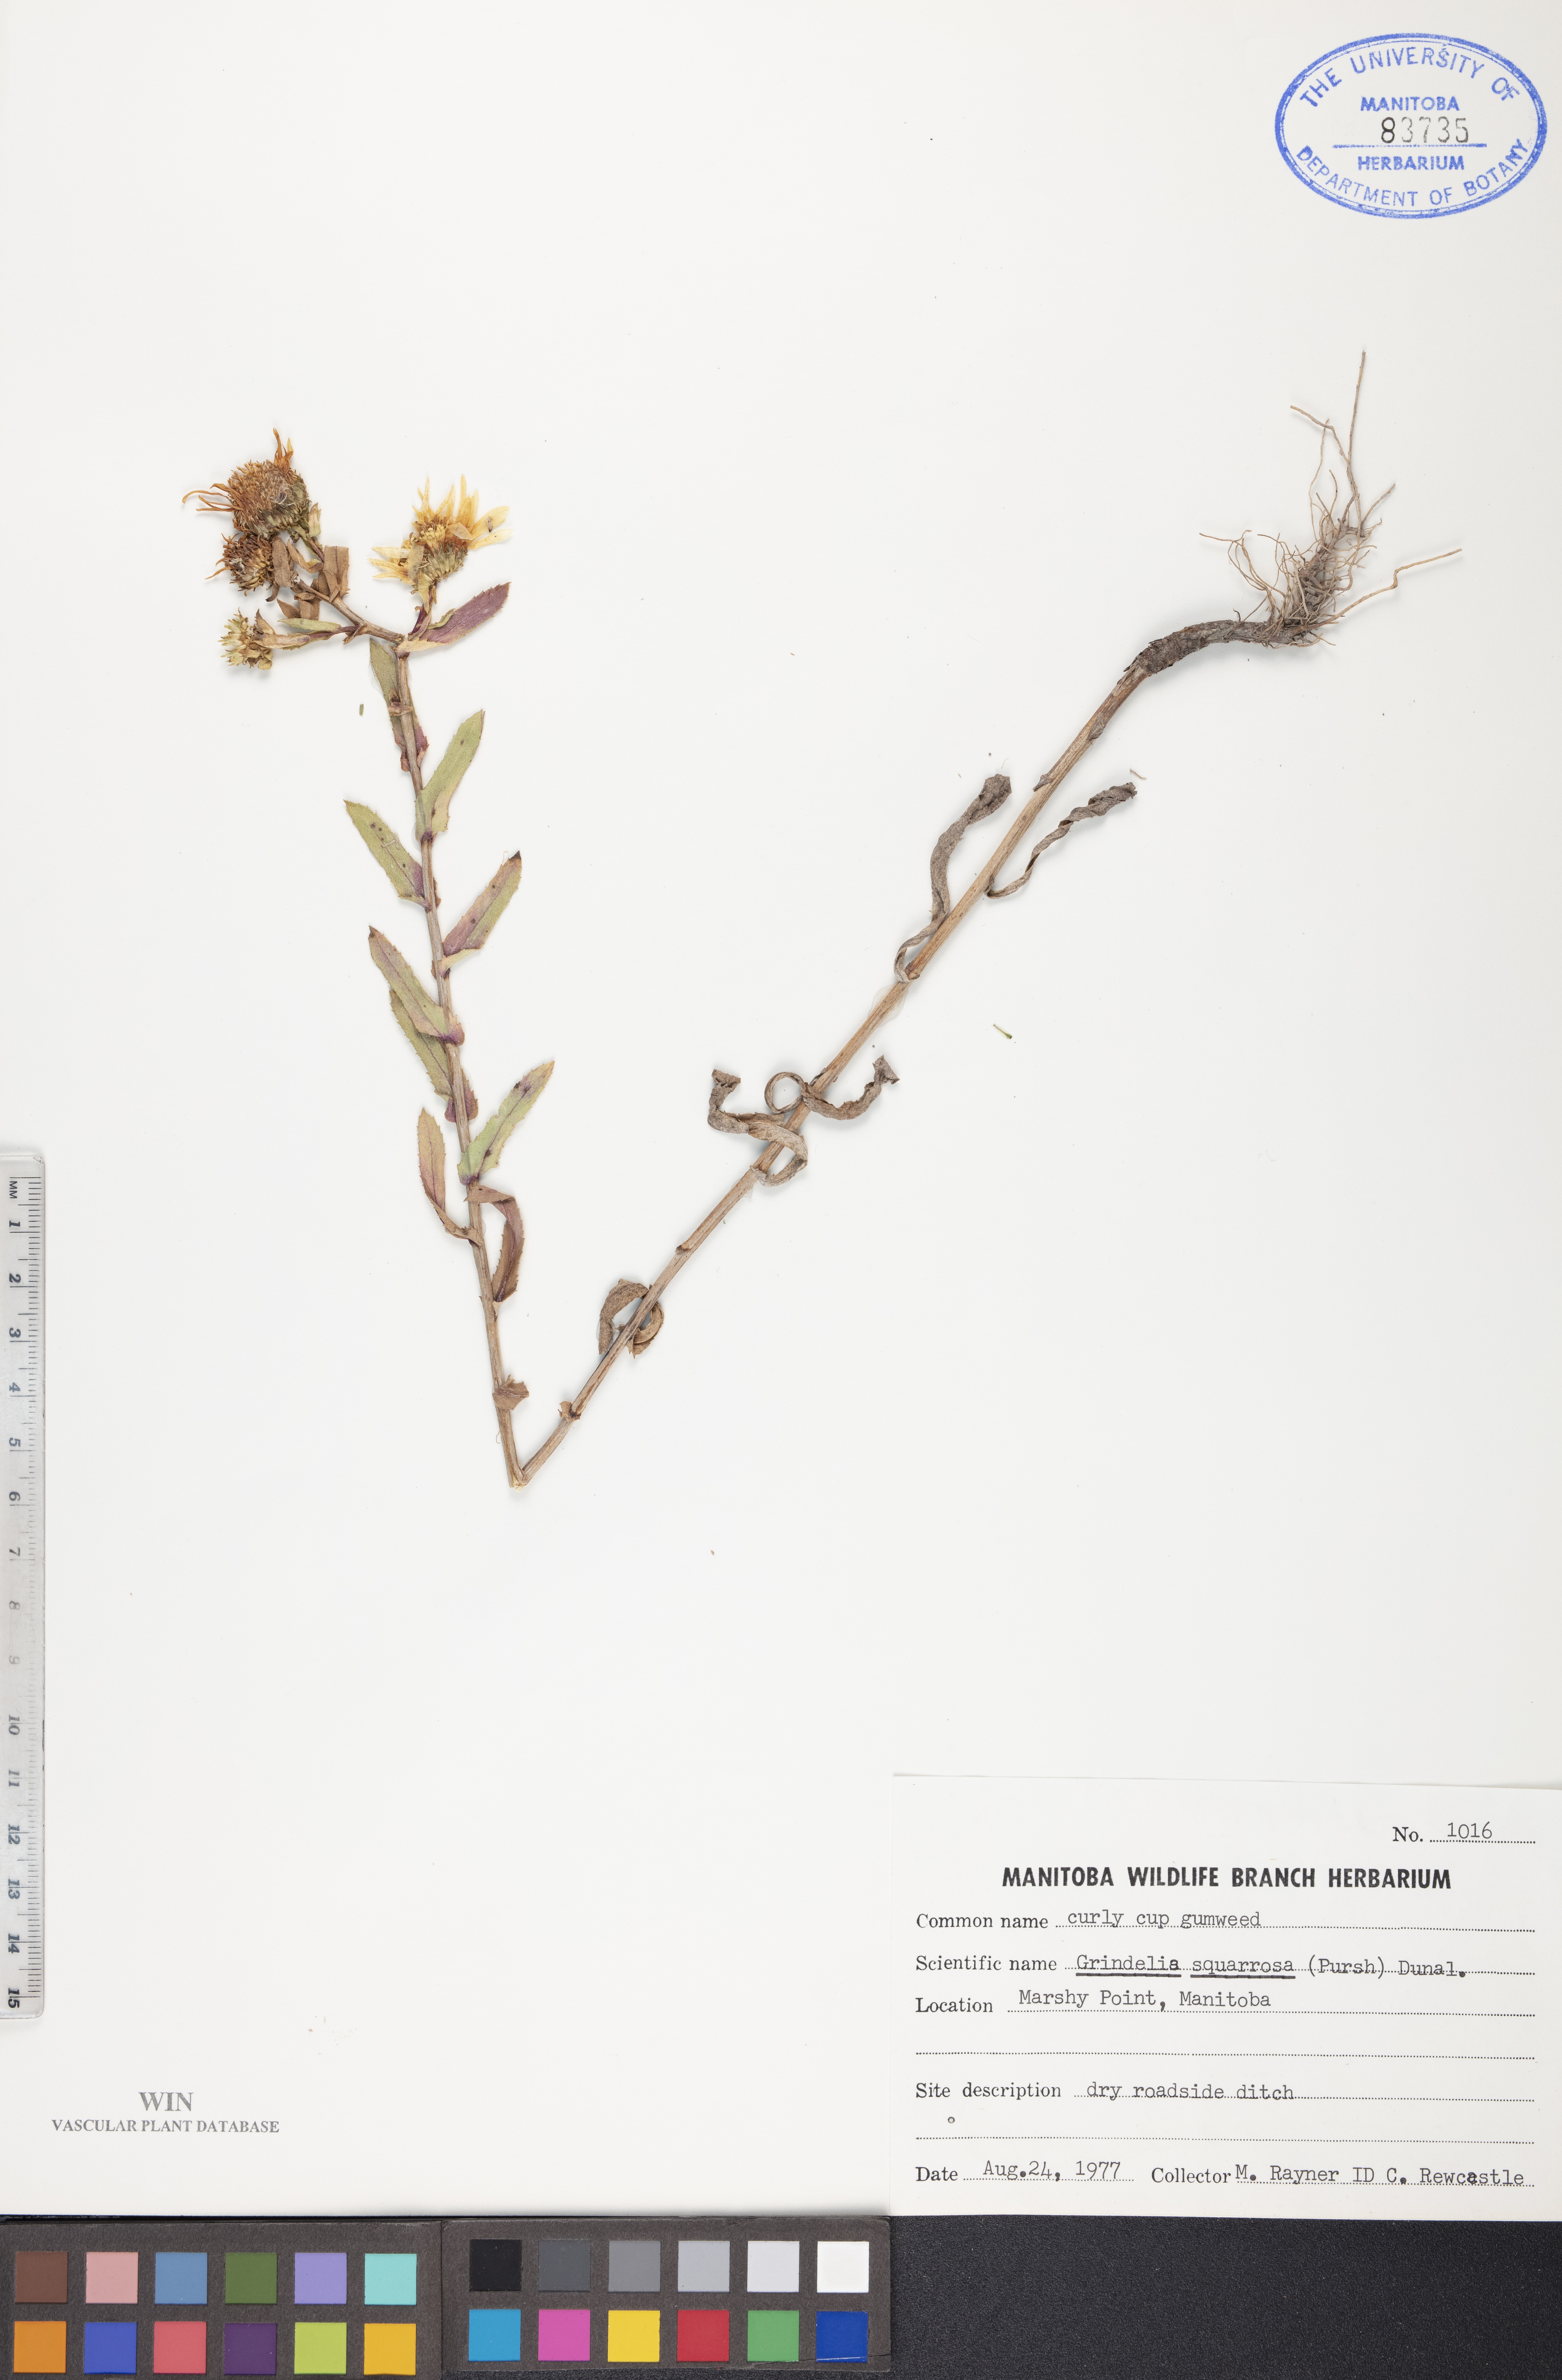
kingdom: Plantae
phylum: Tracheophyta
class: Magnoliopsida
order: Asterales
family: Asteraceae
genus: Grindelia
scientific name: Grindelia squarrosa
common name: Curly-cup gumweed
